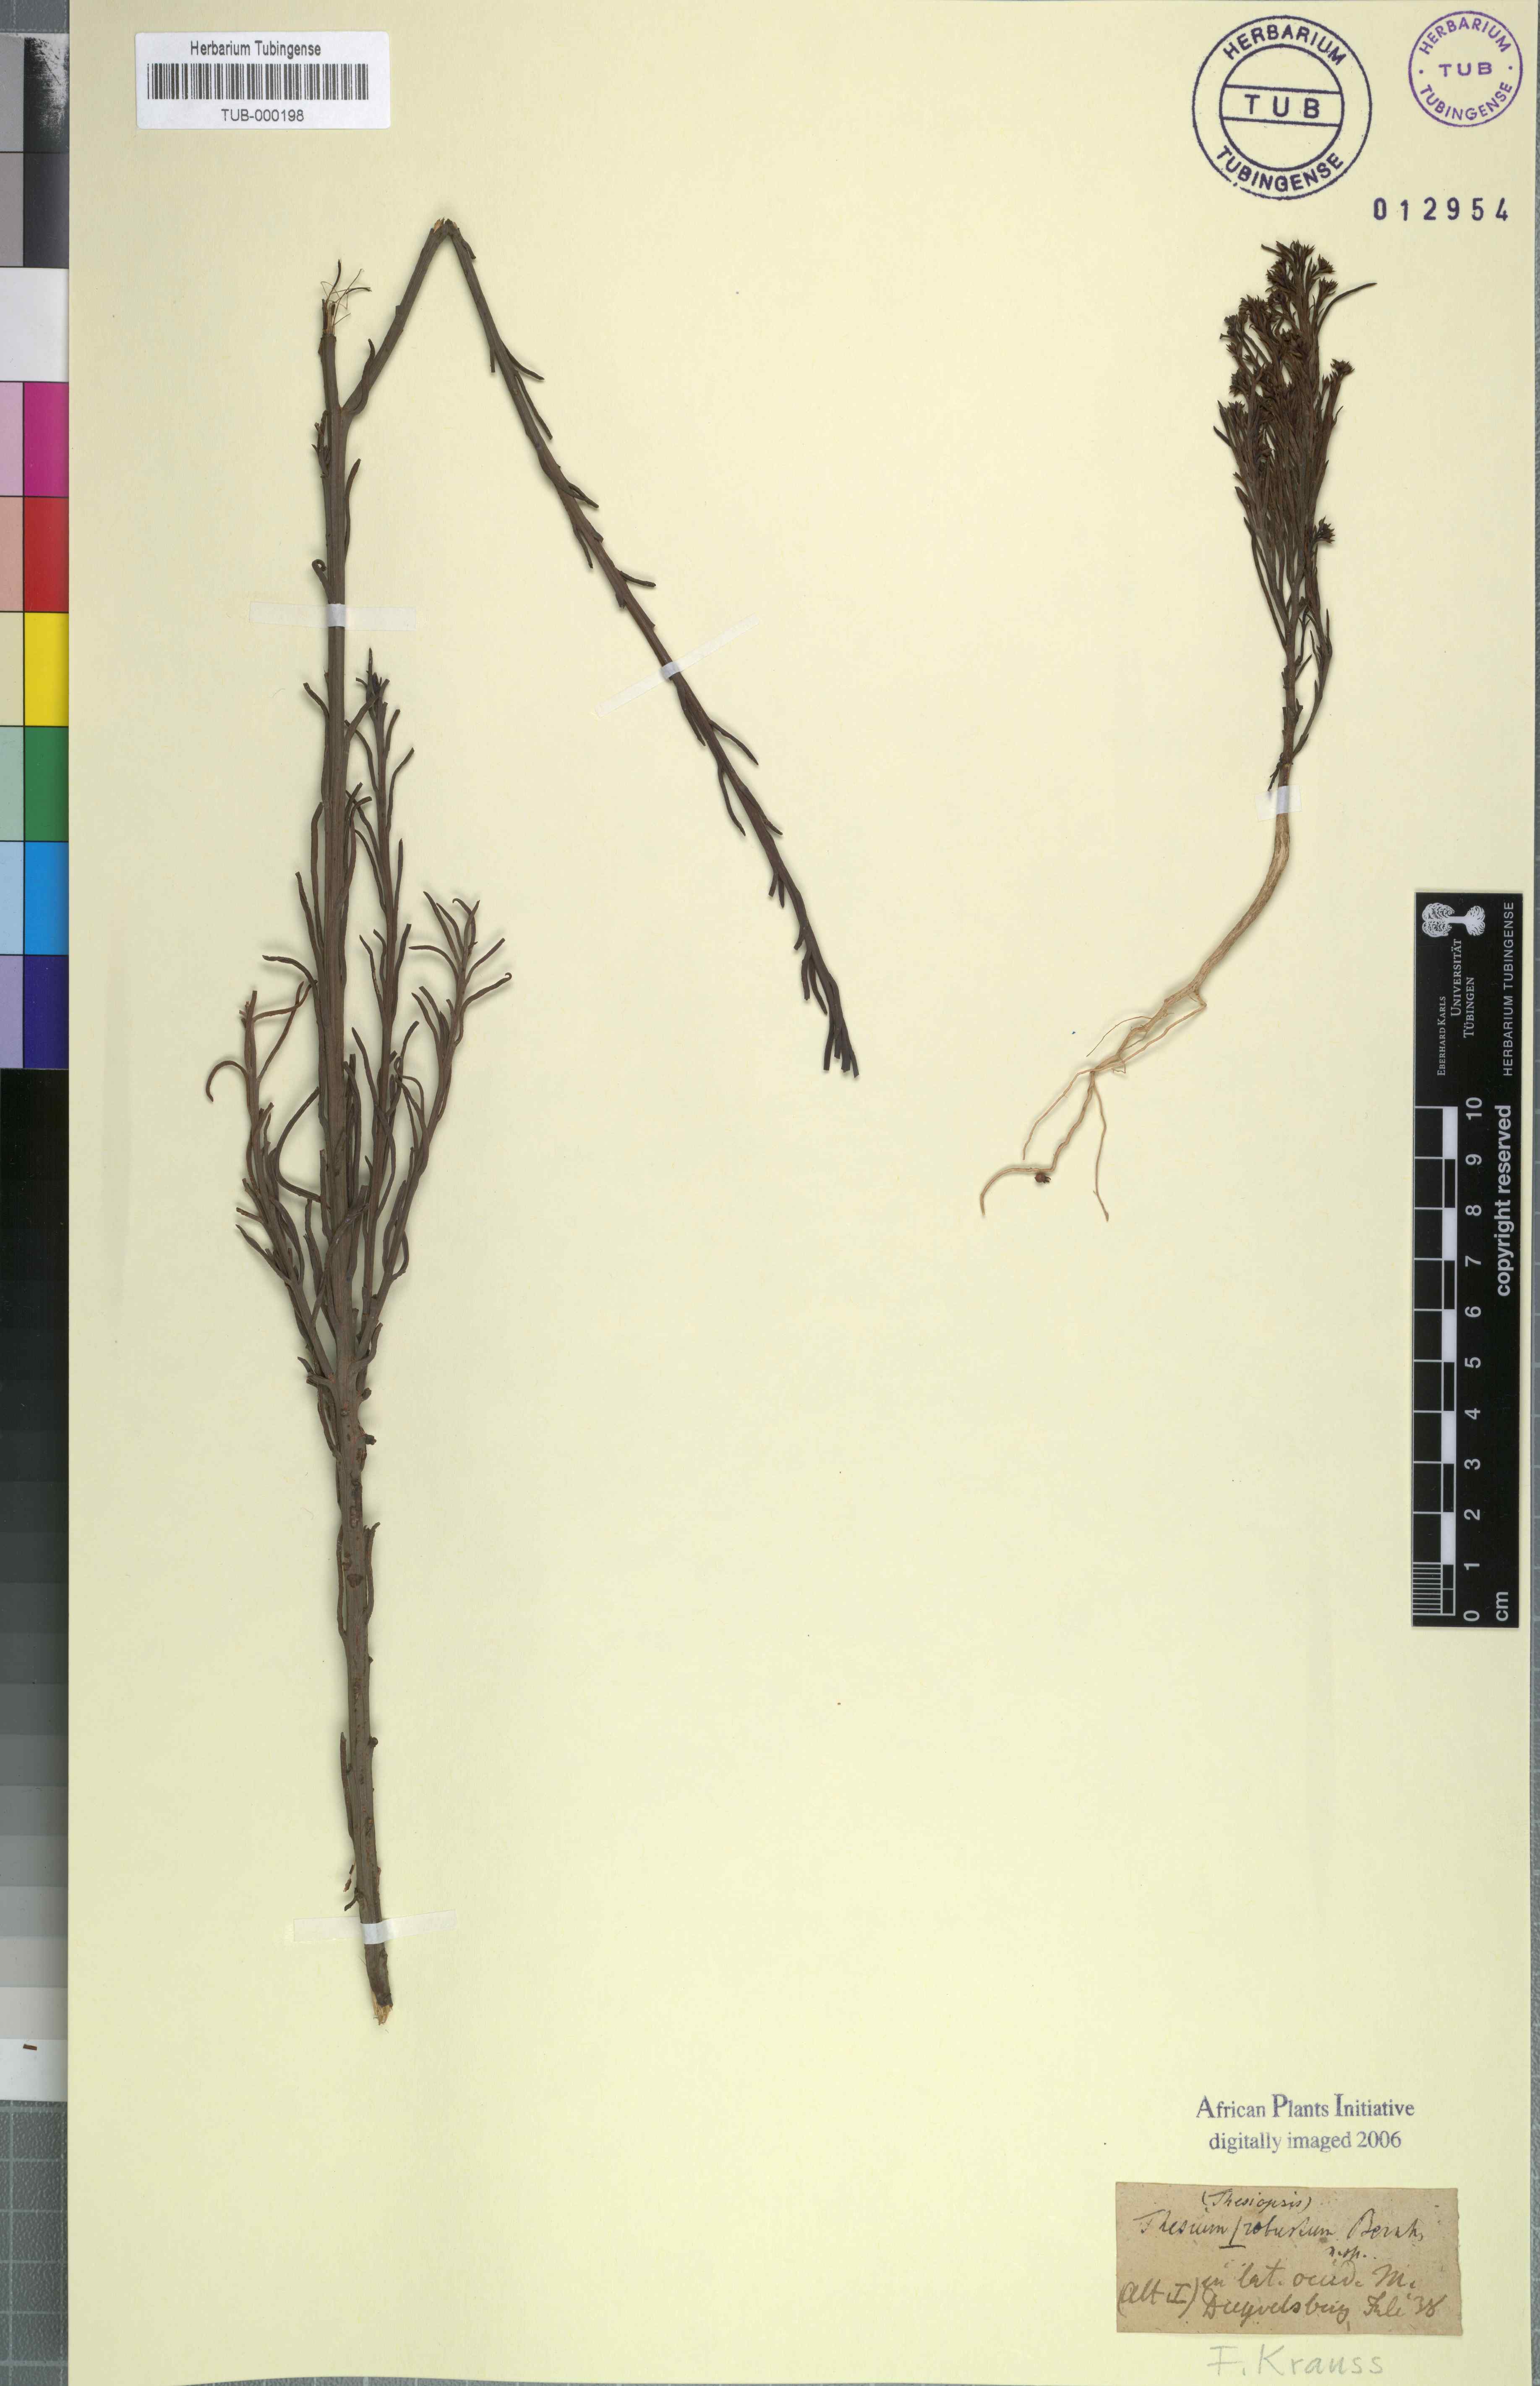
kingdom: Plantae
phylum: Tracheophyta
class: Magnoliopsida
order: Santalales
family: Thesiaceae
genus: Thesium
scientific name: Thesium strictum
